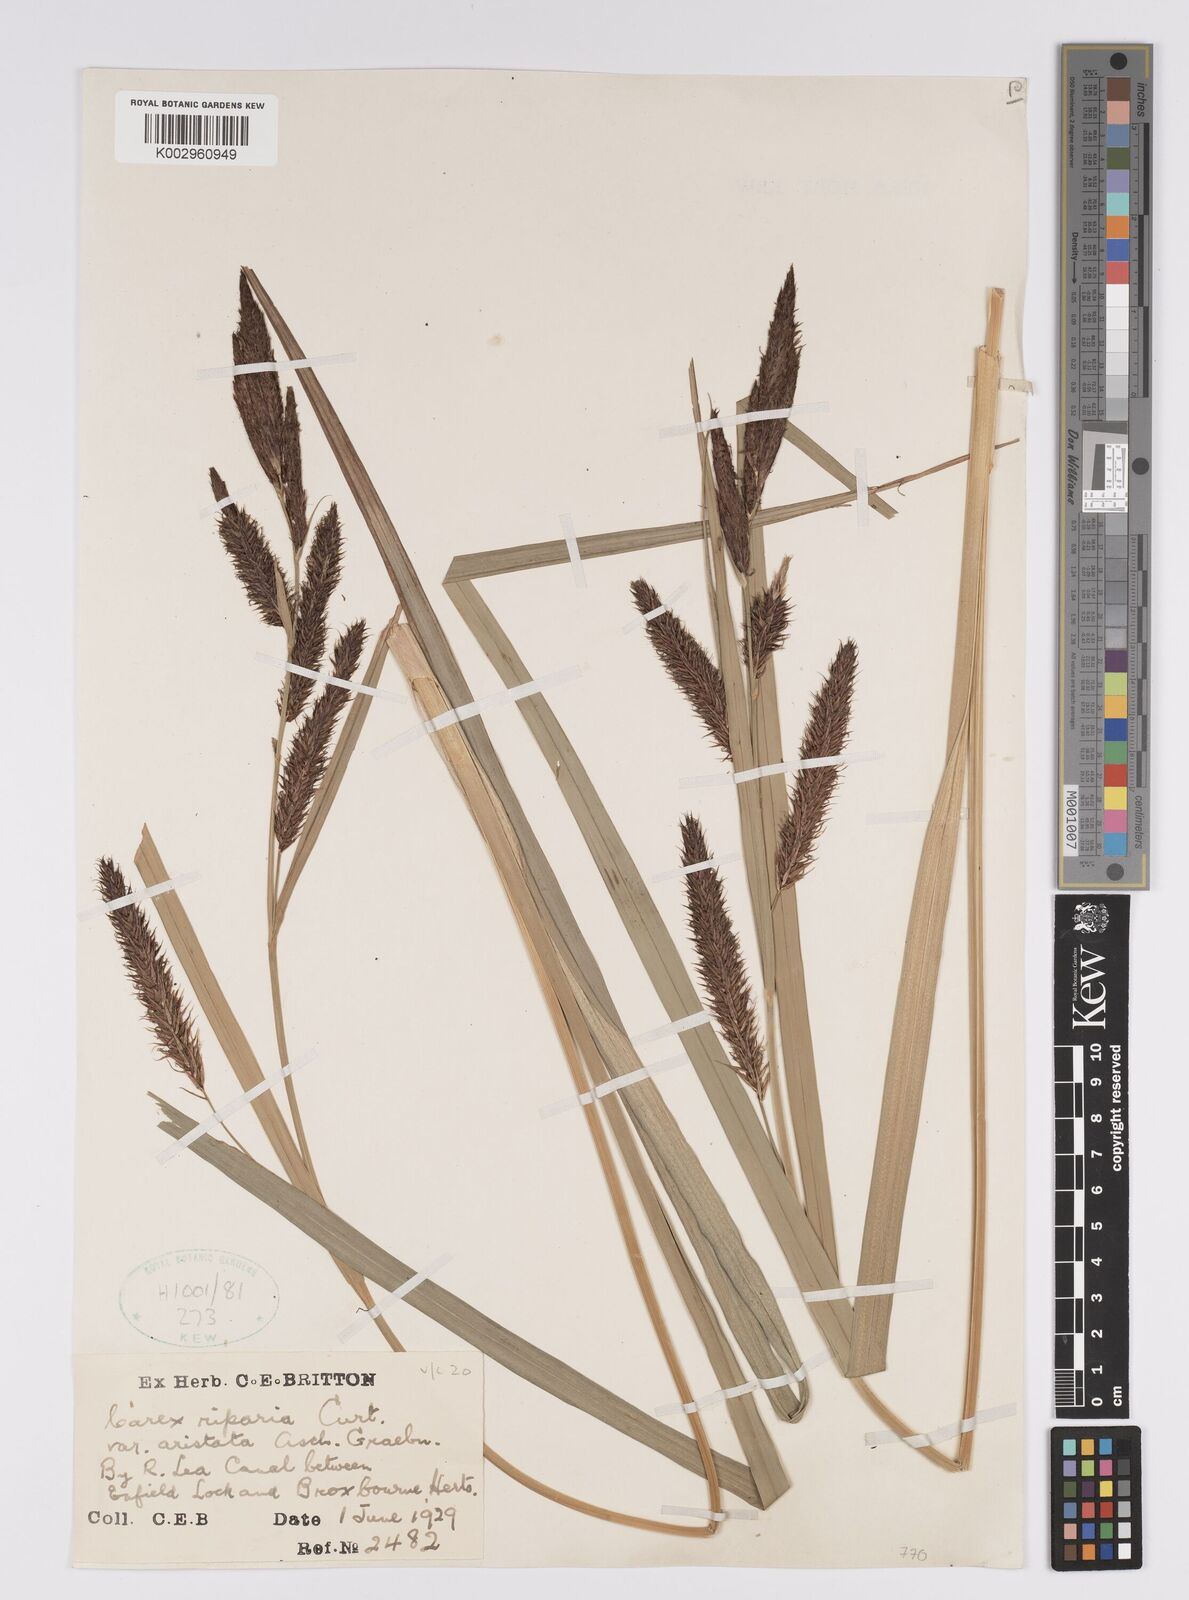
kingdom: Plantae
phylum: Tracheophyta
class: Liliopsida
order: Poales
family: Cyperaceae
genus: Carex
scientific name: Carex riparia
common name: Greater pond-sedge
